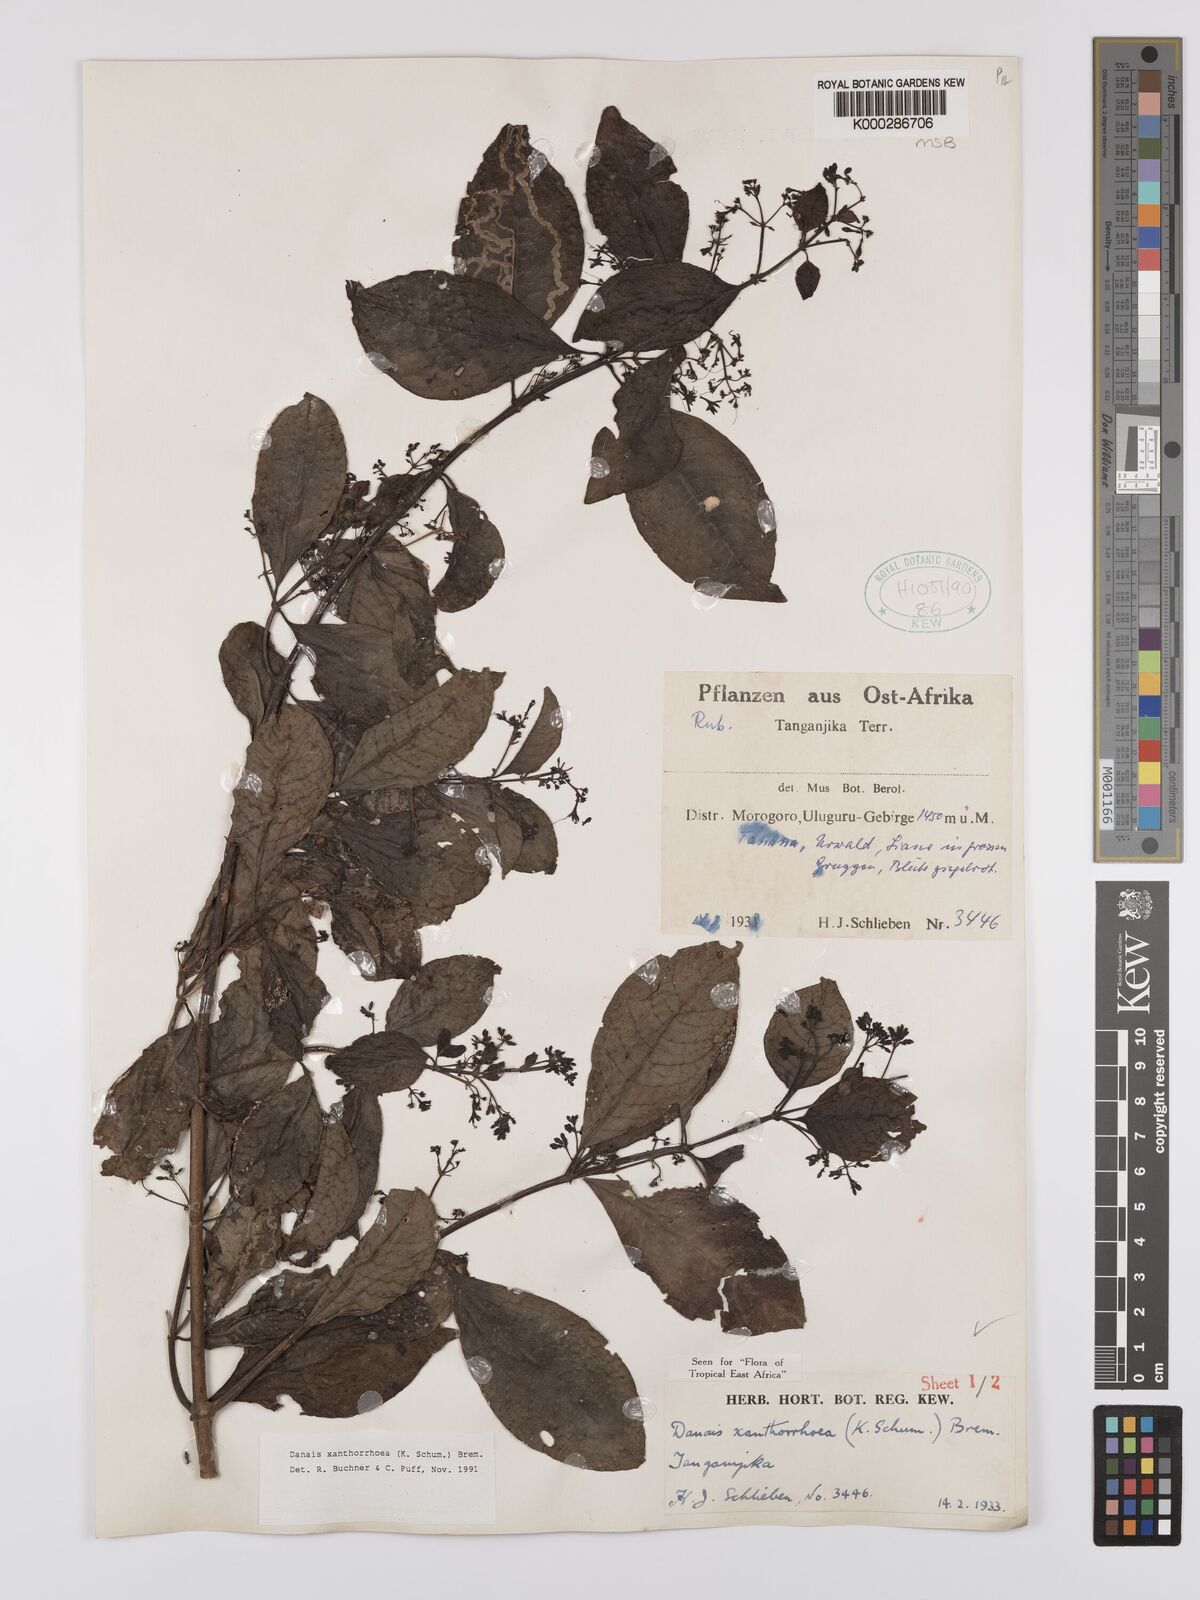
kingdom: Plantae
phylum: Tracheophyta
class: Magnoliopsida
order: Gentianales
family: Rubiaceae
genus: Danais
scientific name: Danais xanthorrhoea
